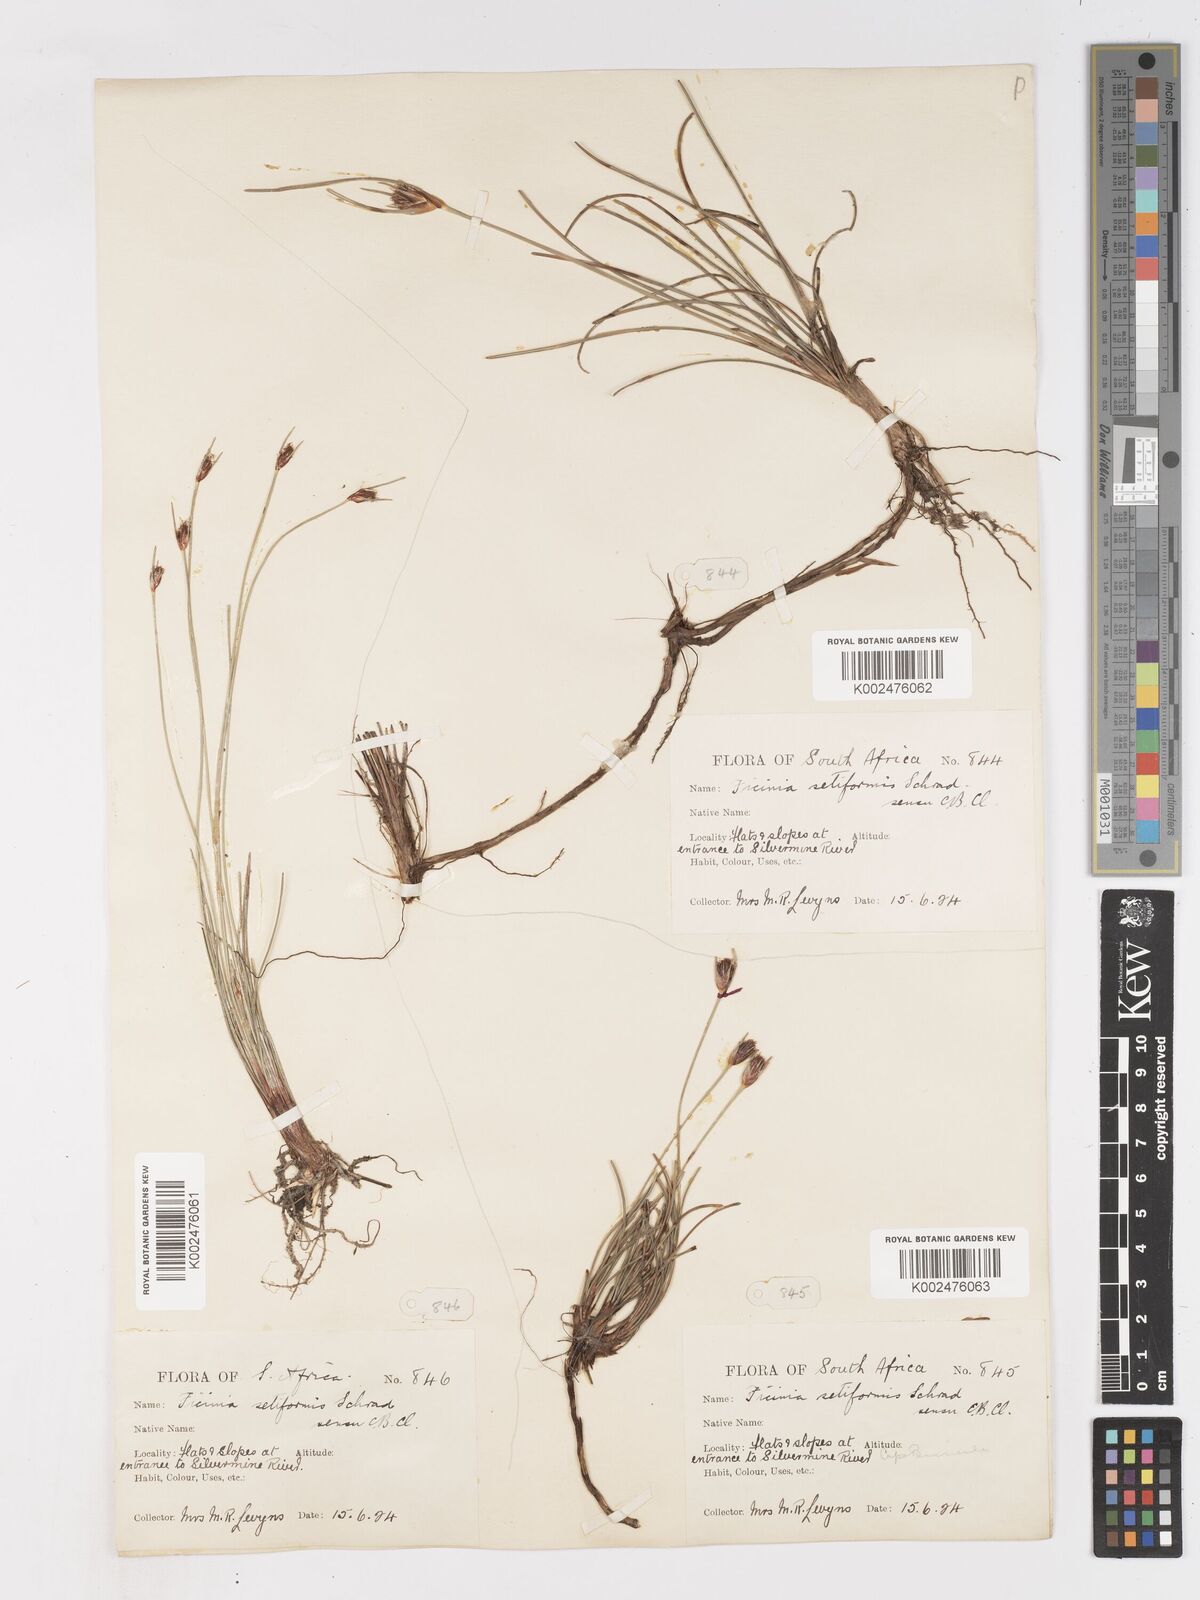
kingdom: Plantae
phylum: Tracheophyta
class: Liliopsida
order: Poales
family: Cyperaceae
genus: Ficinia
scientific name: Ficinia indica
